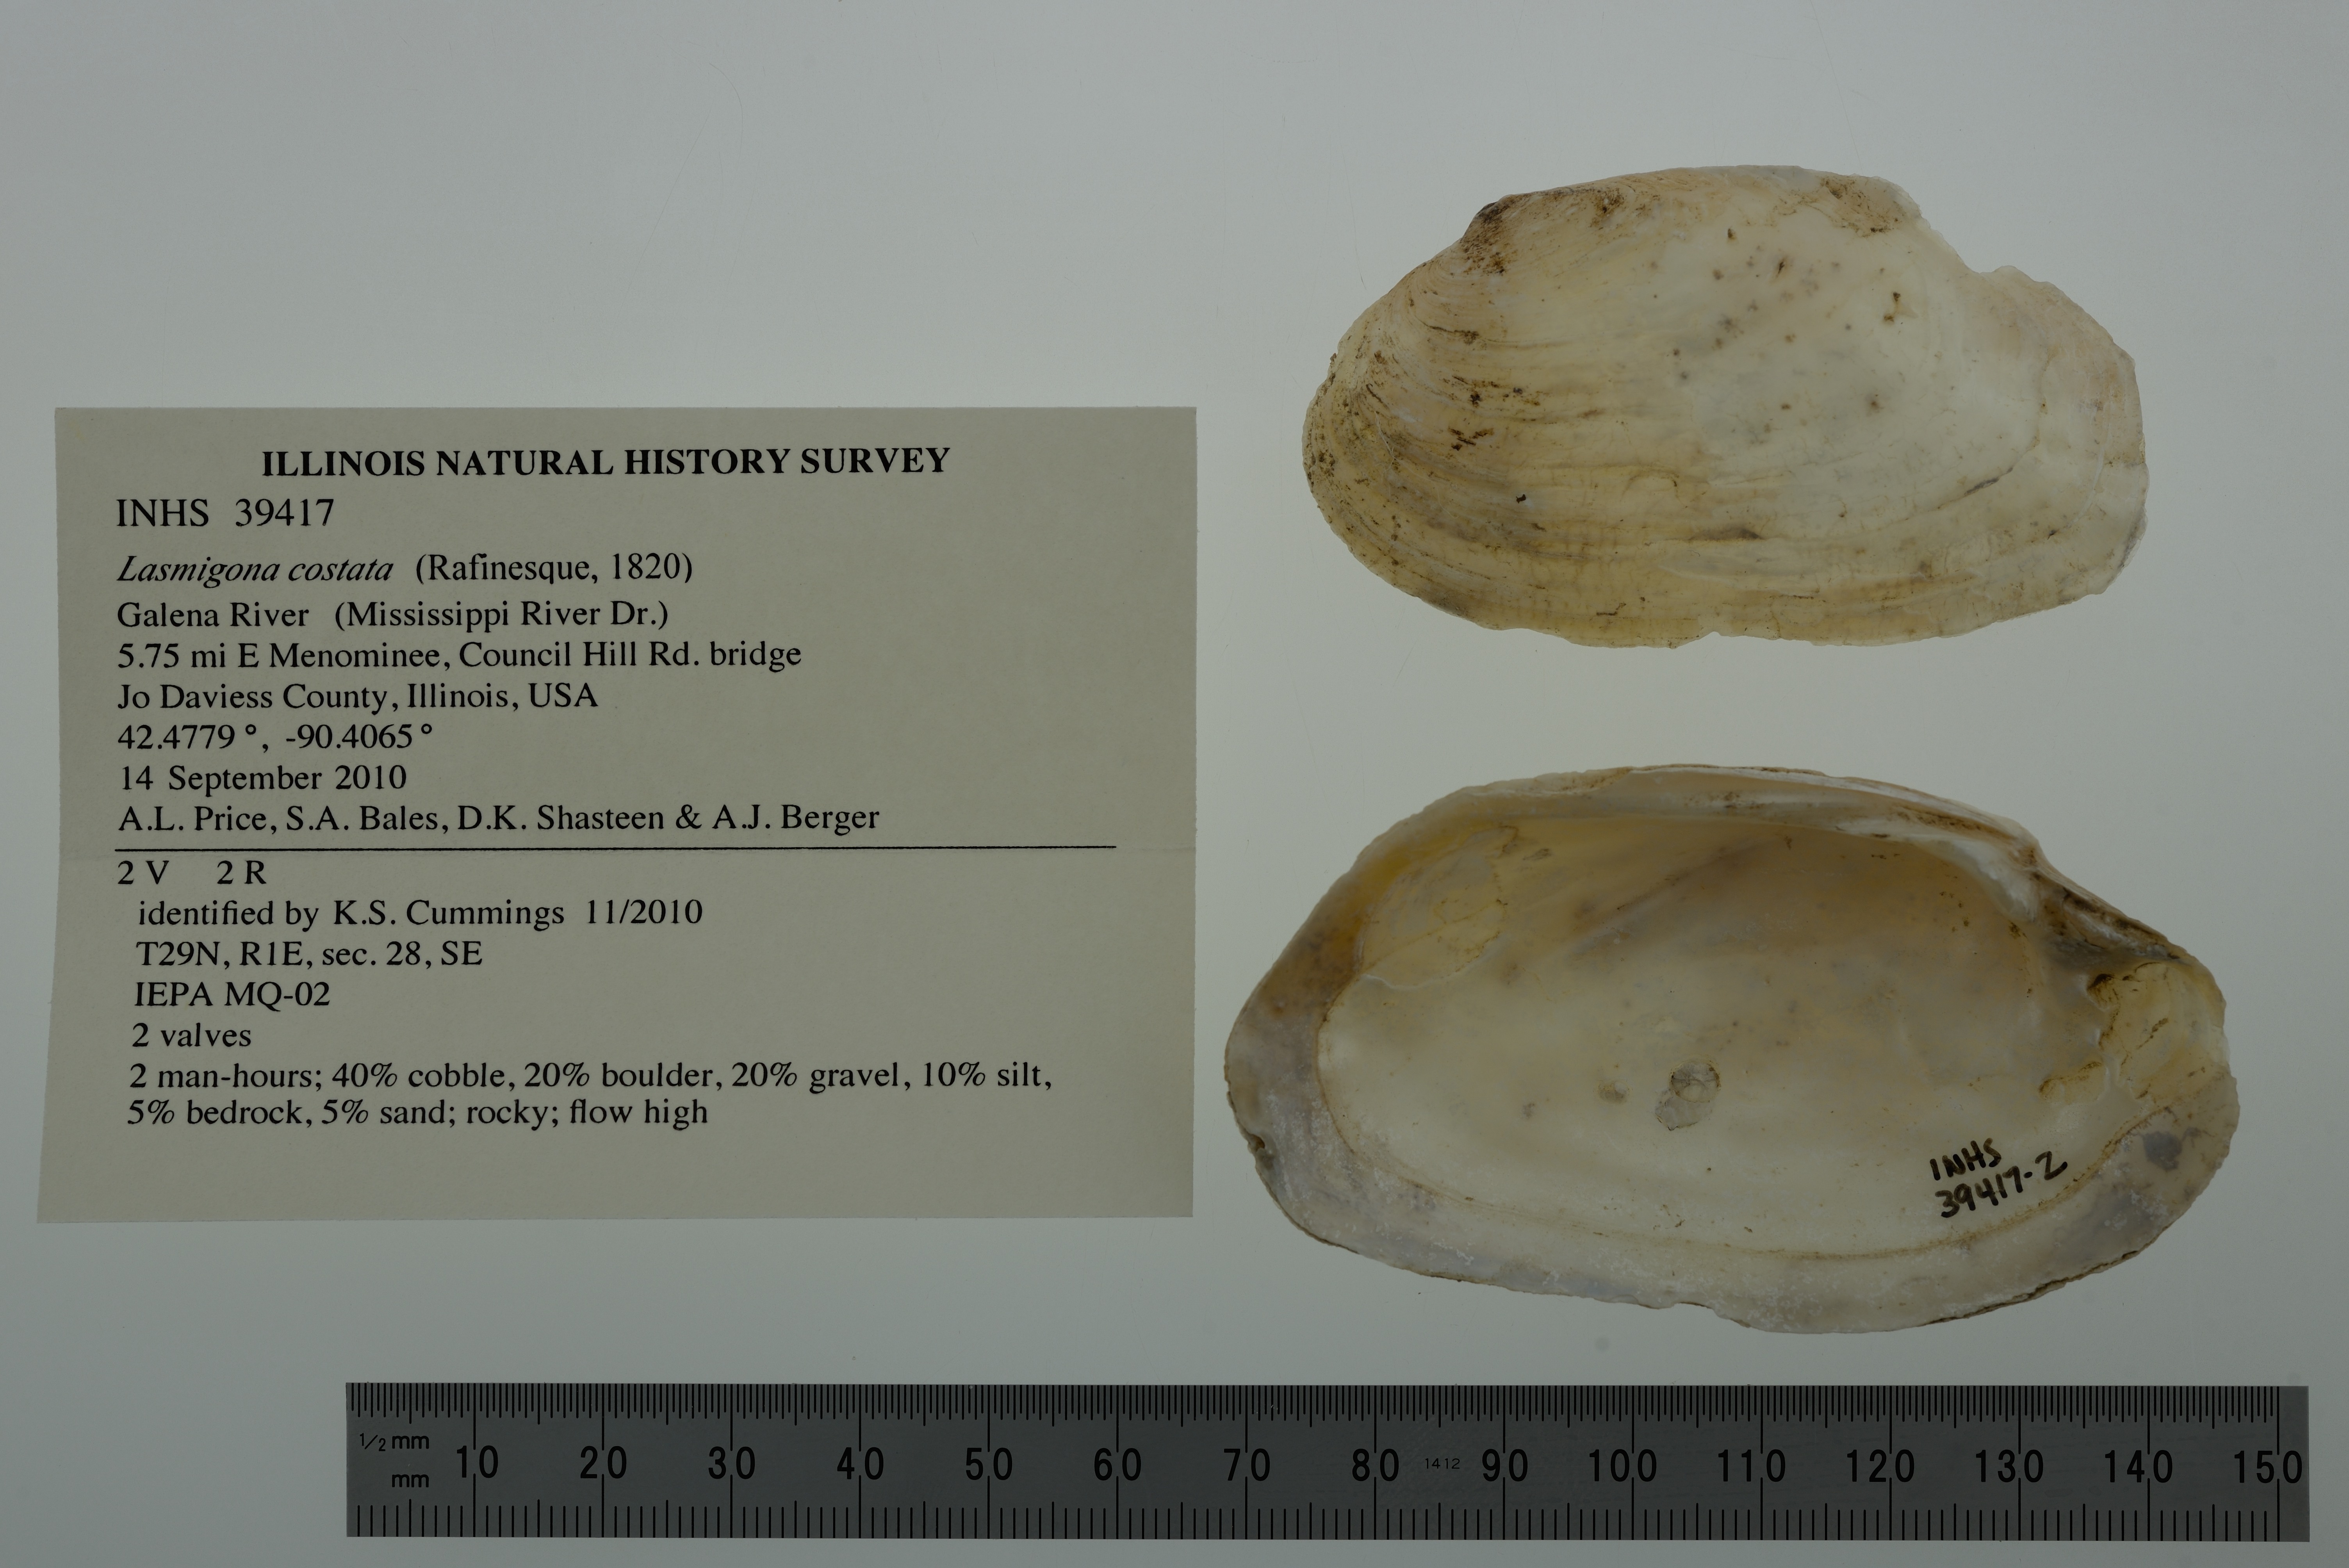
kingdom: Animalia
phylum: Mollusca
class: Bivalvia
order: Unionida
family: Unionidae
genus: Lasmigona
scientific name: Lasmigona costata
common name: Flutedshell
